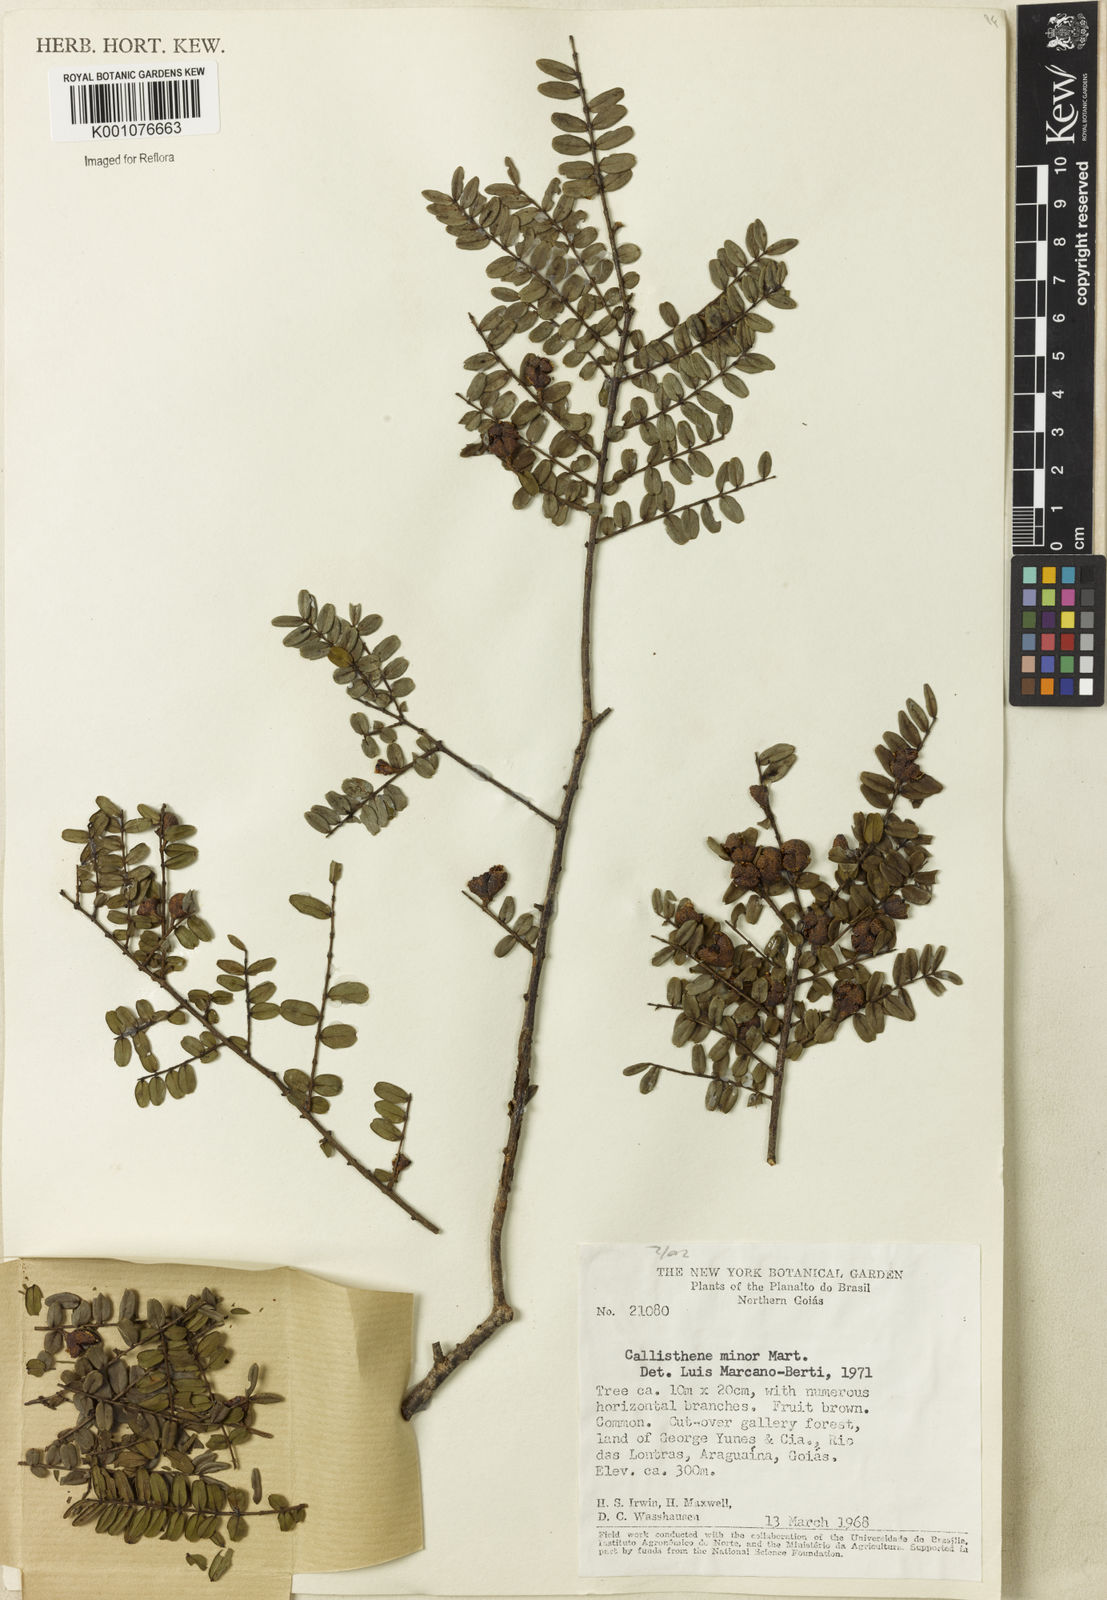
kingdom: Plantae
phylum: Tracheophyta
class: Magnoliopsida
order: Myrtales
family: Vochysiaceae
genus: Callisthene
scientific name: Callisthene minor
